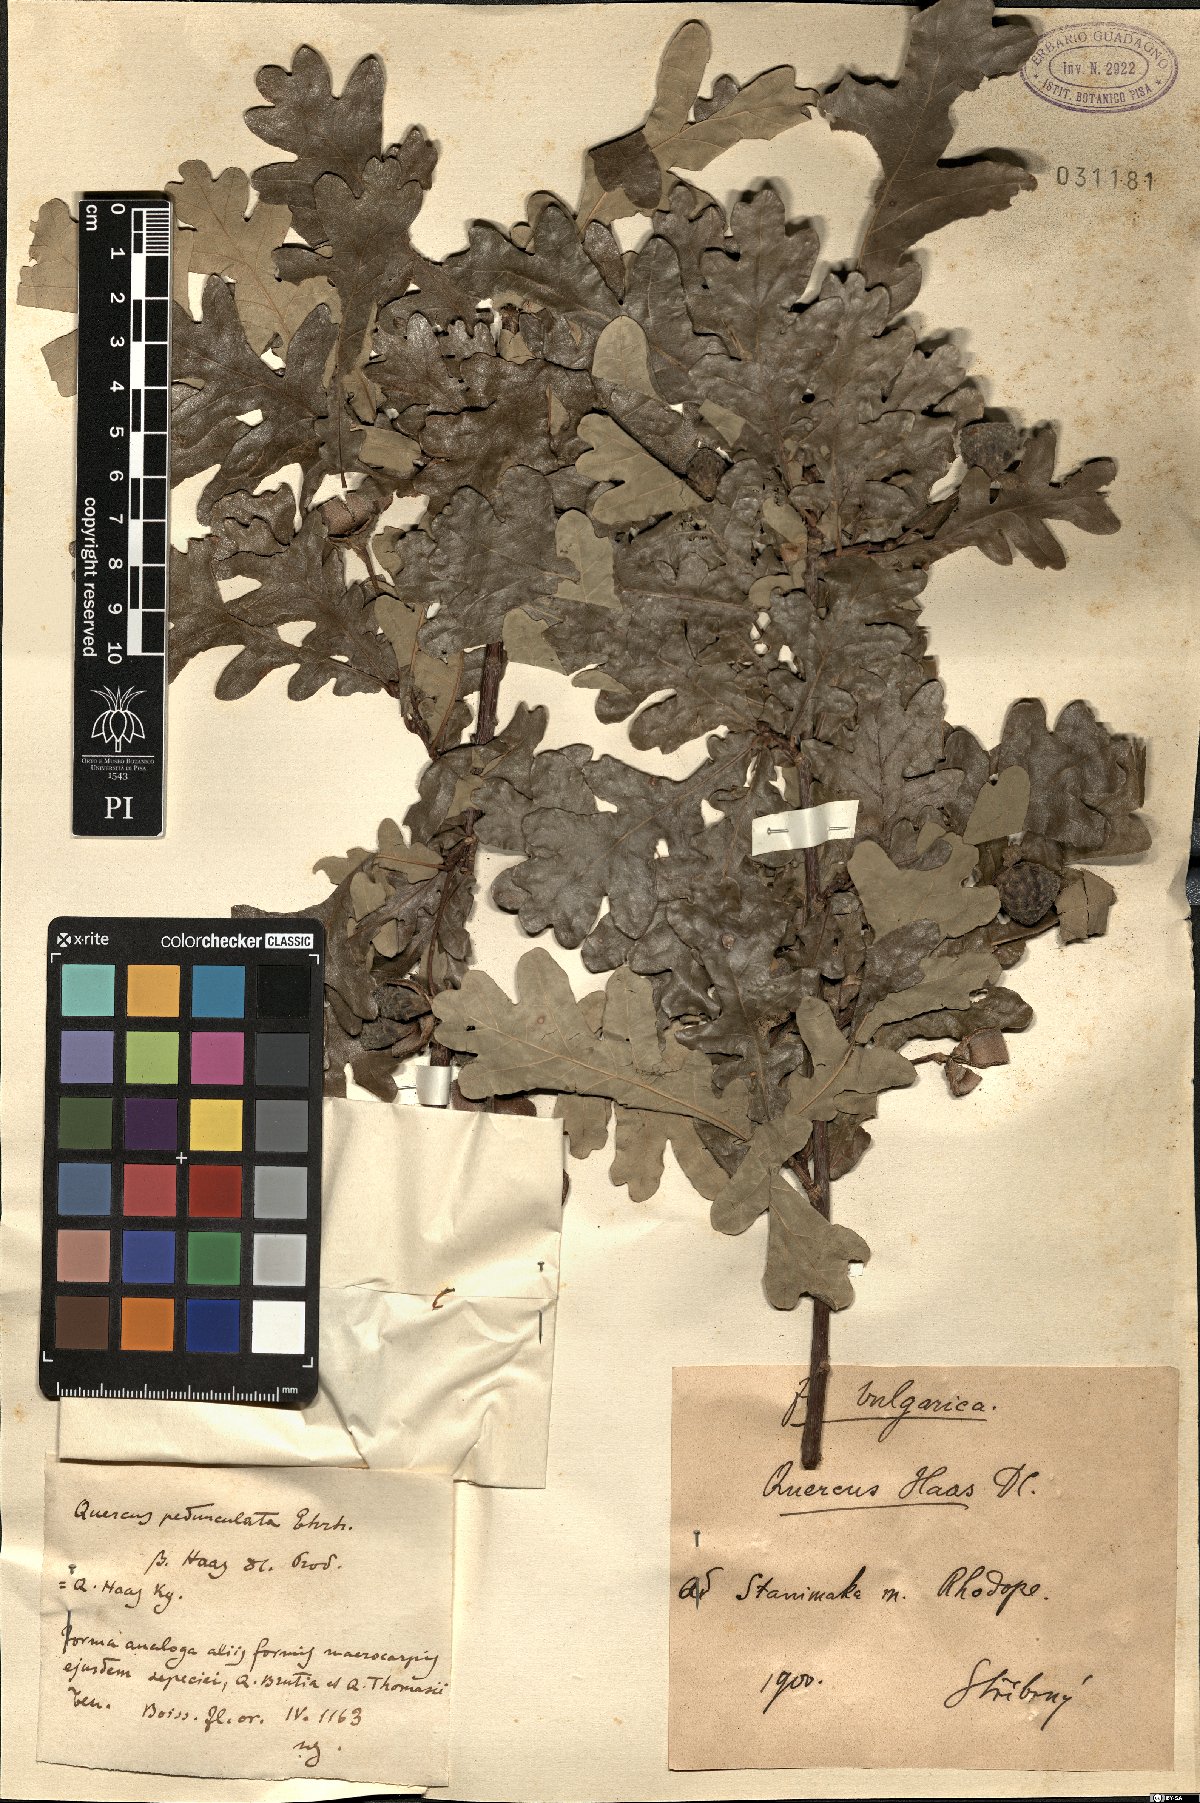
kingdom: Plantae
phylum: Tracheophyta
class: Magnoliopsida
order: Fagales
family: Fagaceae
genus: Quercus
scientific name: Quercus robur
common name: Pedunculate oak
